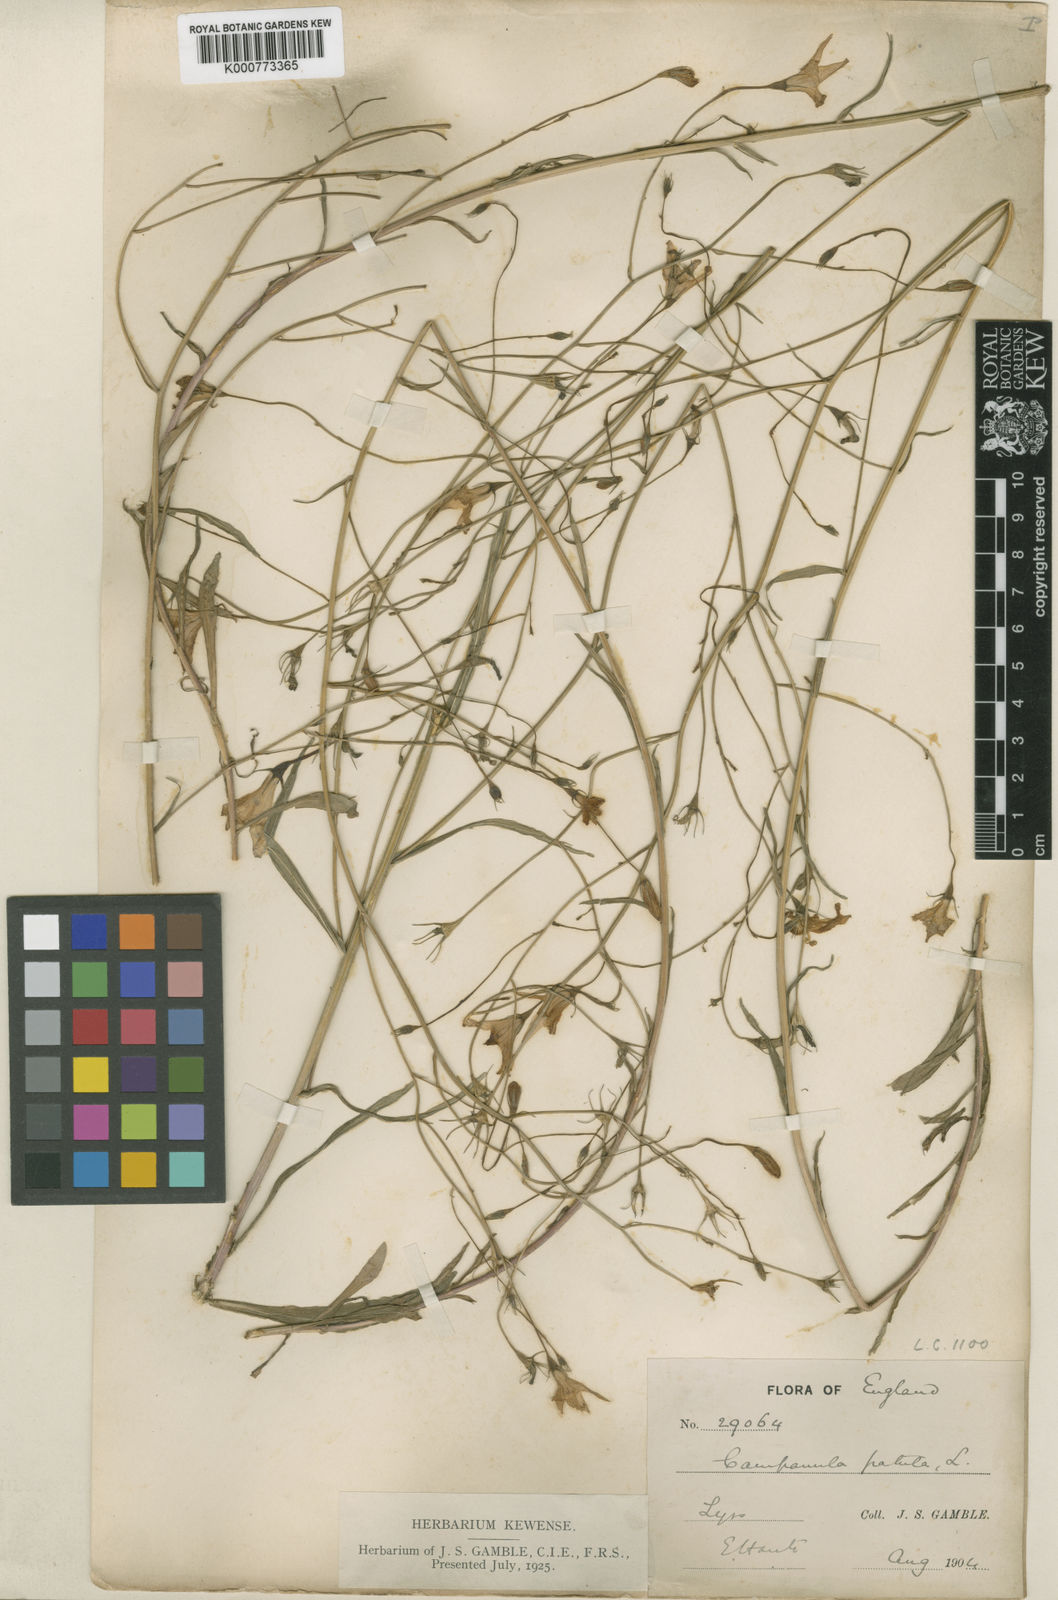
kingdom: Plantae
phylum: Tracheophyta
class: Magnoliopsida
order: Asterales
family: Campanulaceae
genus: Campanula
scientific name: Campanula patula
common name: Spreading bellflower
